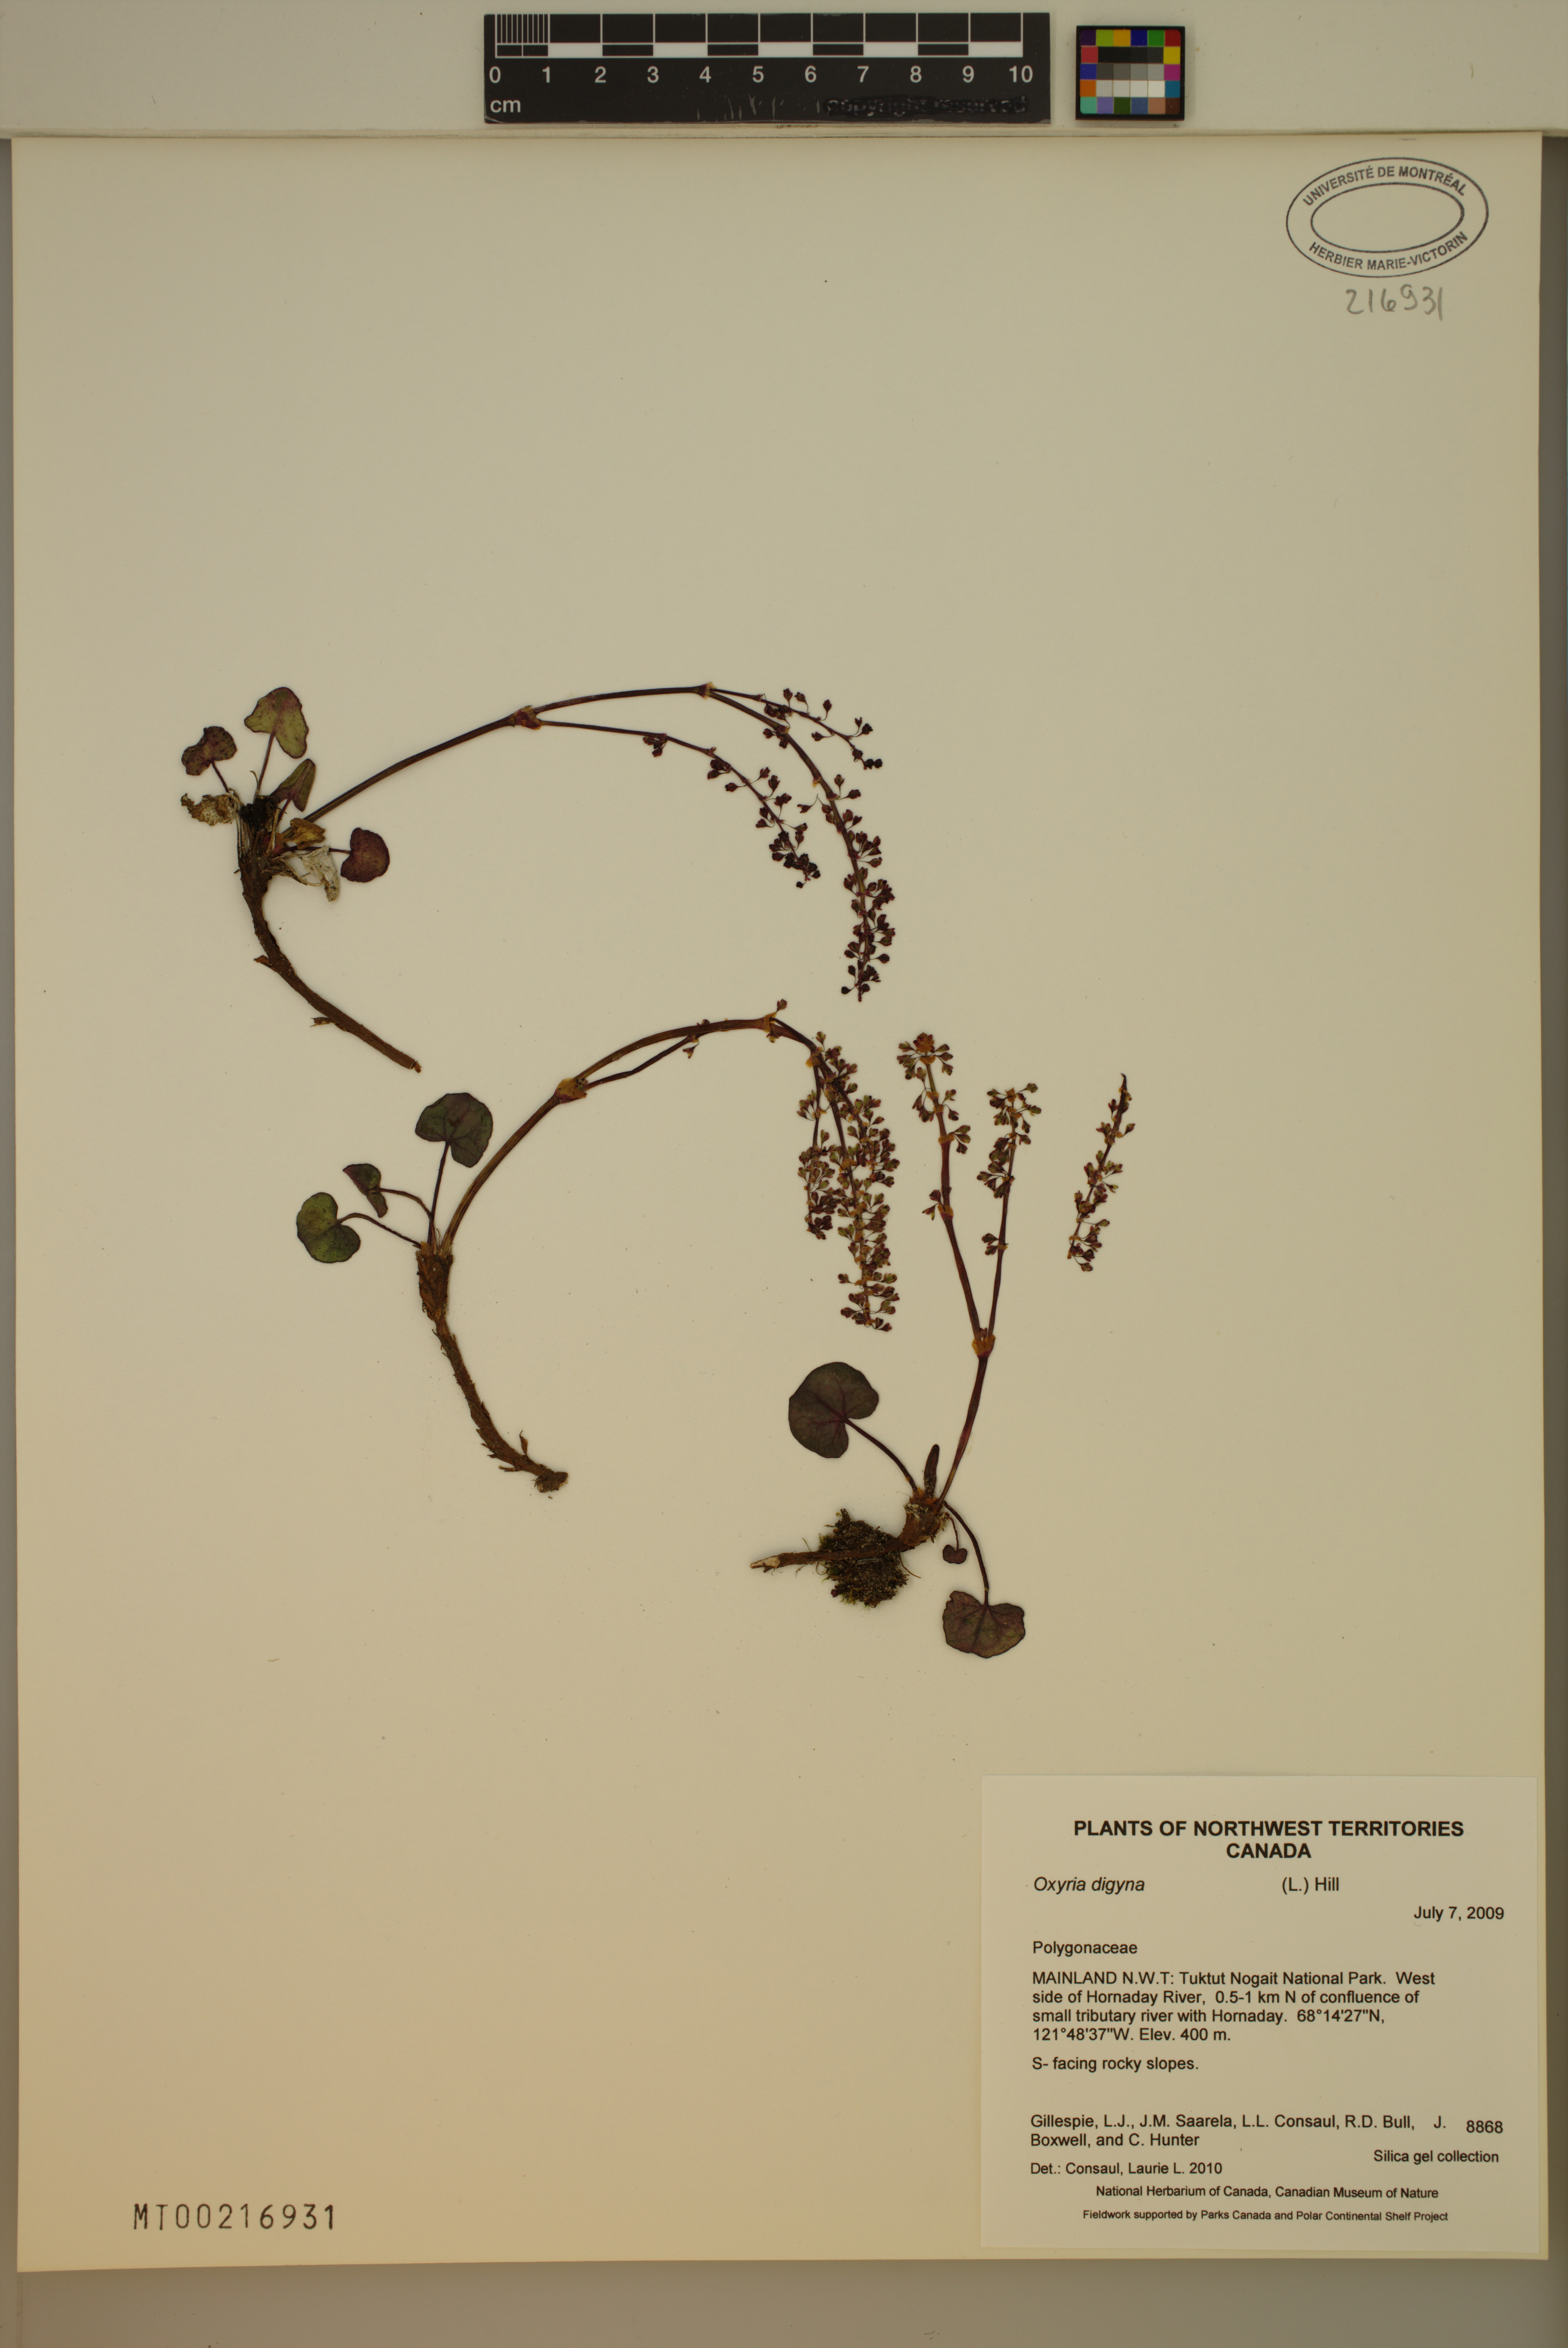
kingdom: Plantae
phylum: Tracheophyta
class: Magnoliopsida
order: Caryophyllales
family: Polygonaceae
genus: Oxyria
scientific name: Oxyria digyna
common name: Alpine mountain-sorrel
